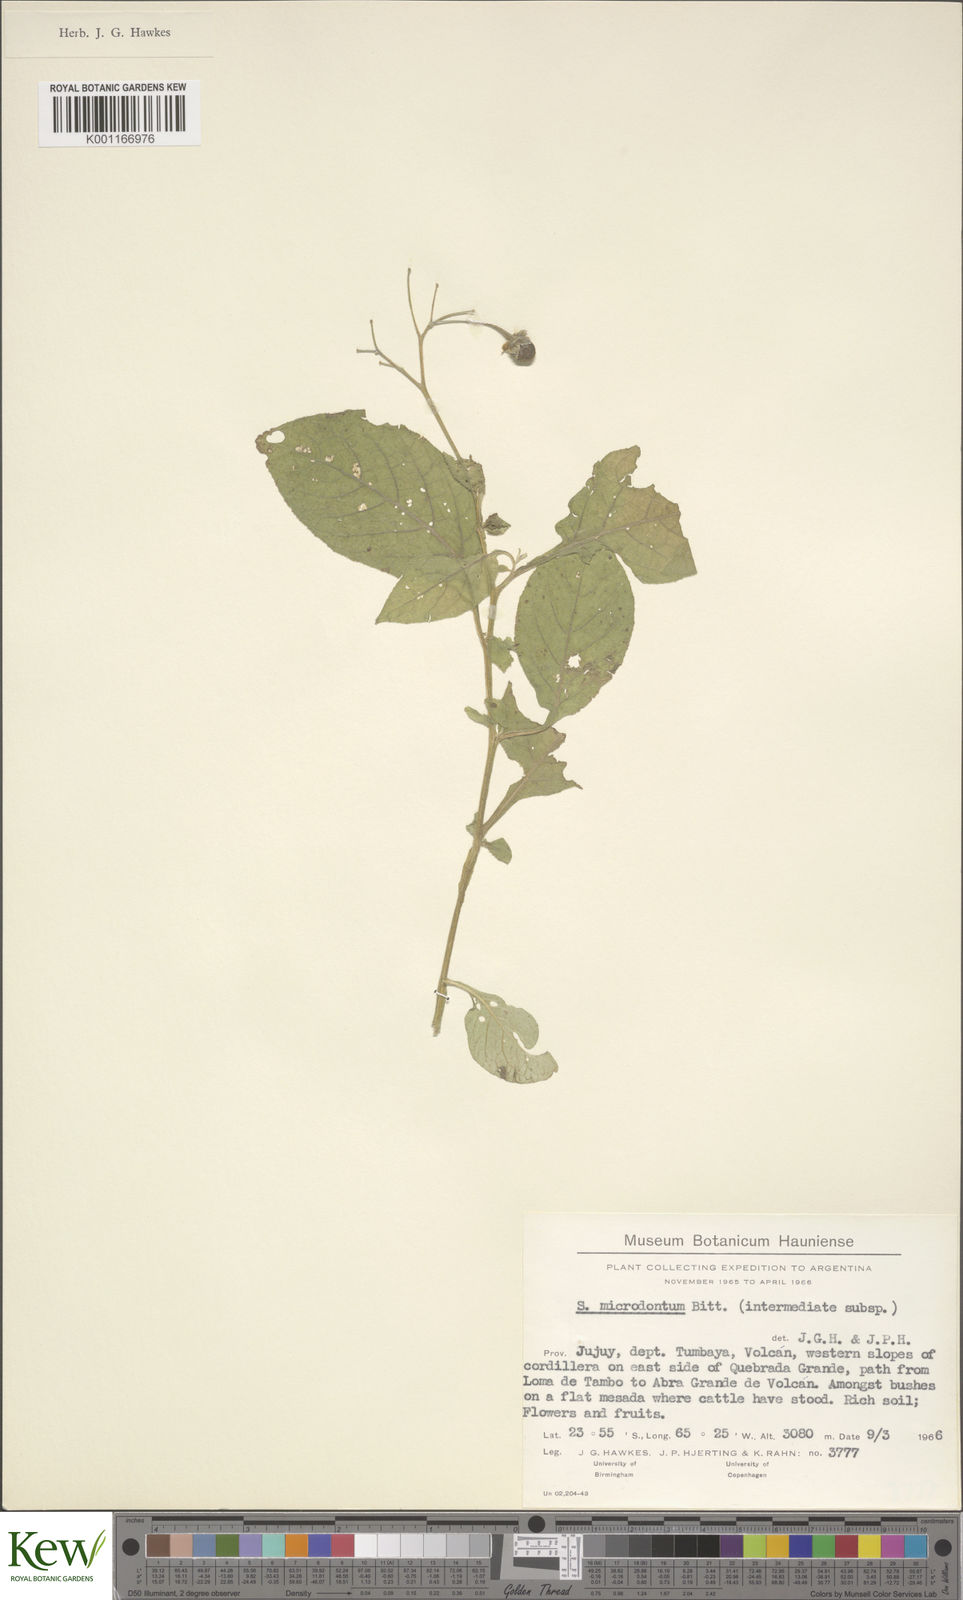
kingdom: Plantae
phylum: Tracheophyta
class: Magnoliopsida
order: Solanales
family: Solanaceae
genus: Solanum
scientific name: Solanum microdontum
